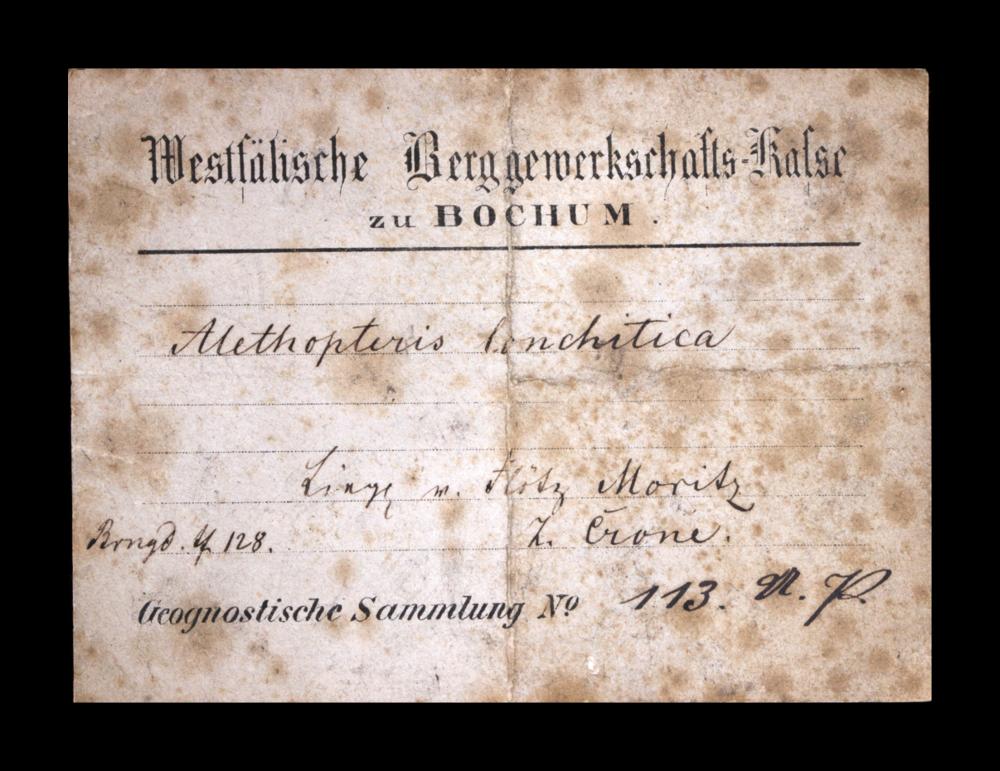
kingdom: Plantae
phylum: Tracheophyta
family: Pachytestaceae
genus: Alethopteris
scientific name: Alethopteris
